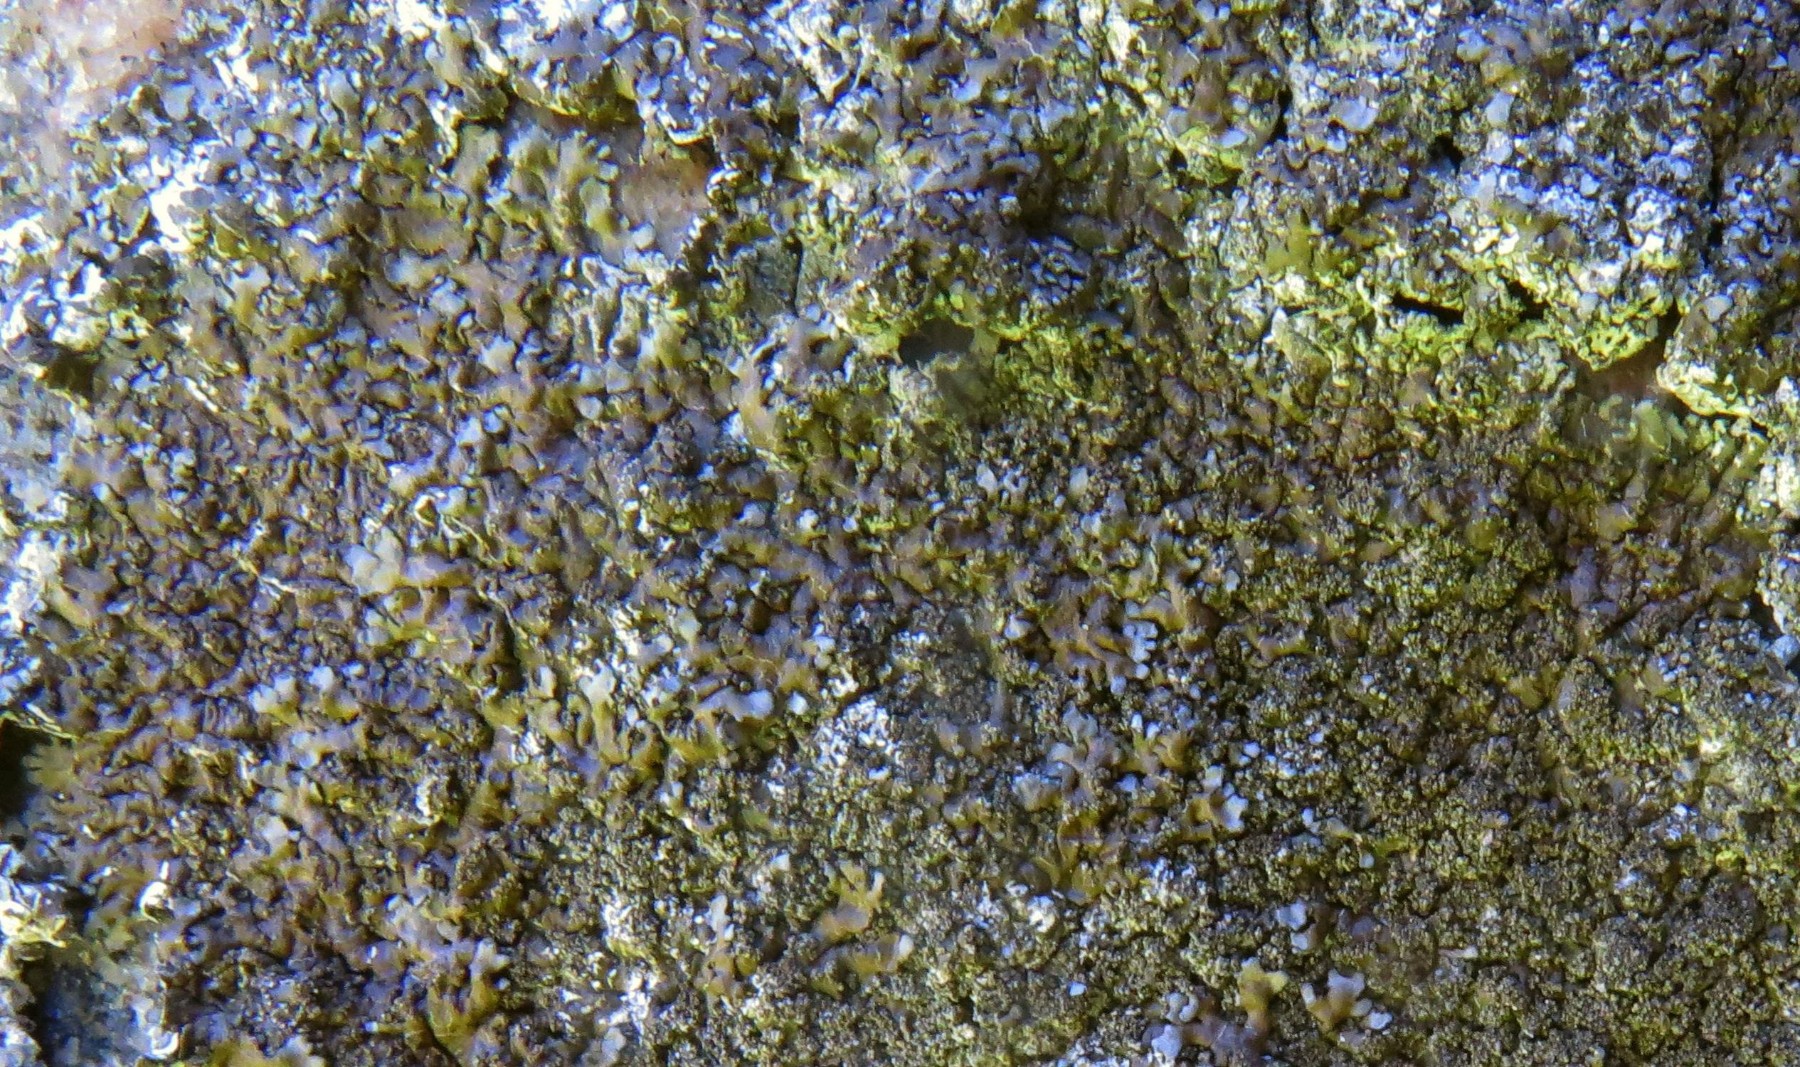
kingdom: Fungi
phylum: Ascomycota
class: Lecanoromycetes
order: Lecanorales
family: Parmeliaceae
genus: Xanthoparmelia
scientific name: Xanthoparmelia verruculifera
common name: småknoppet skållav
